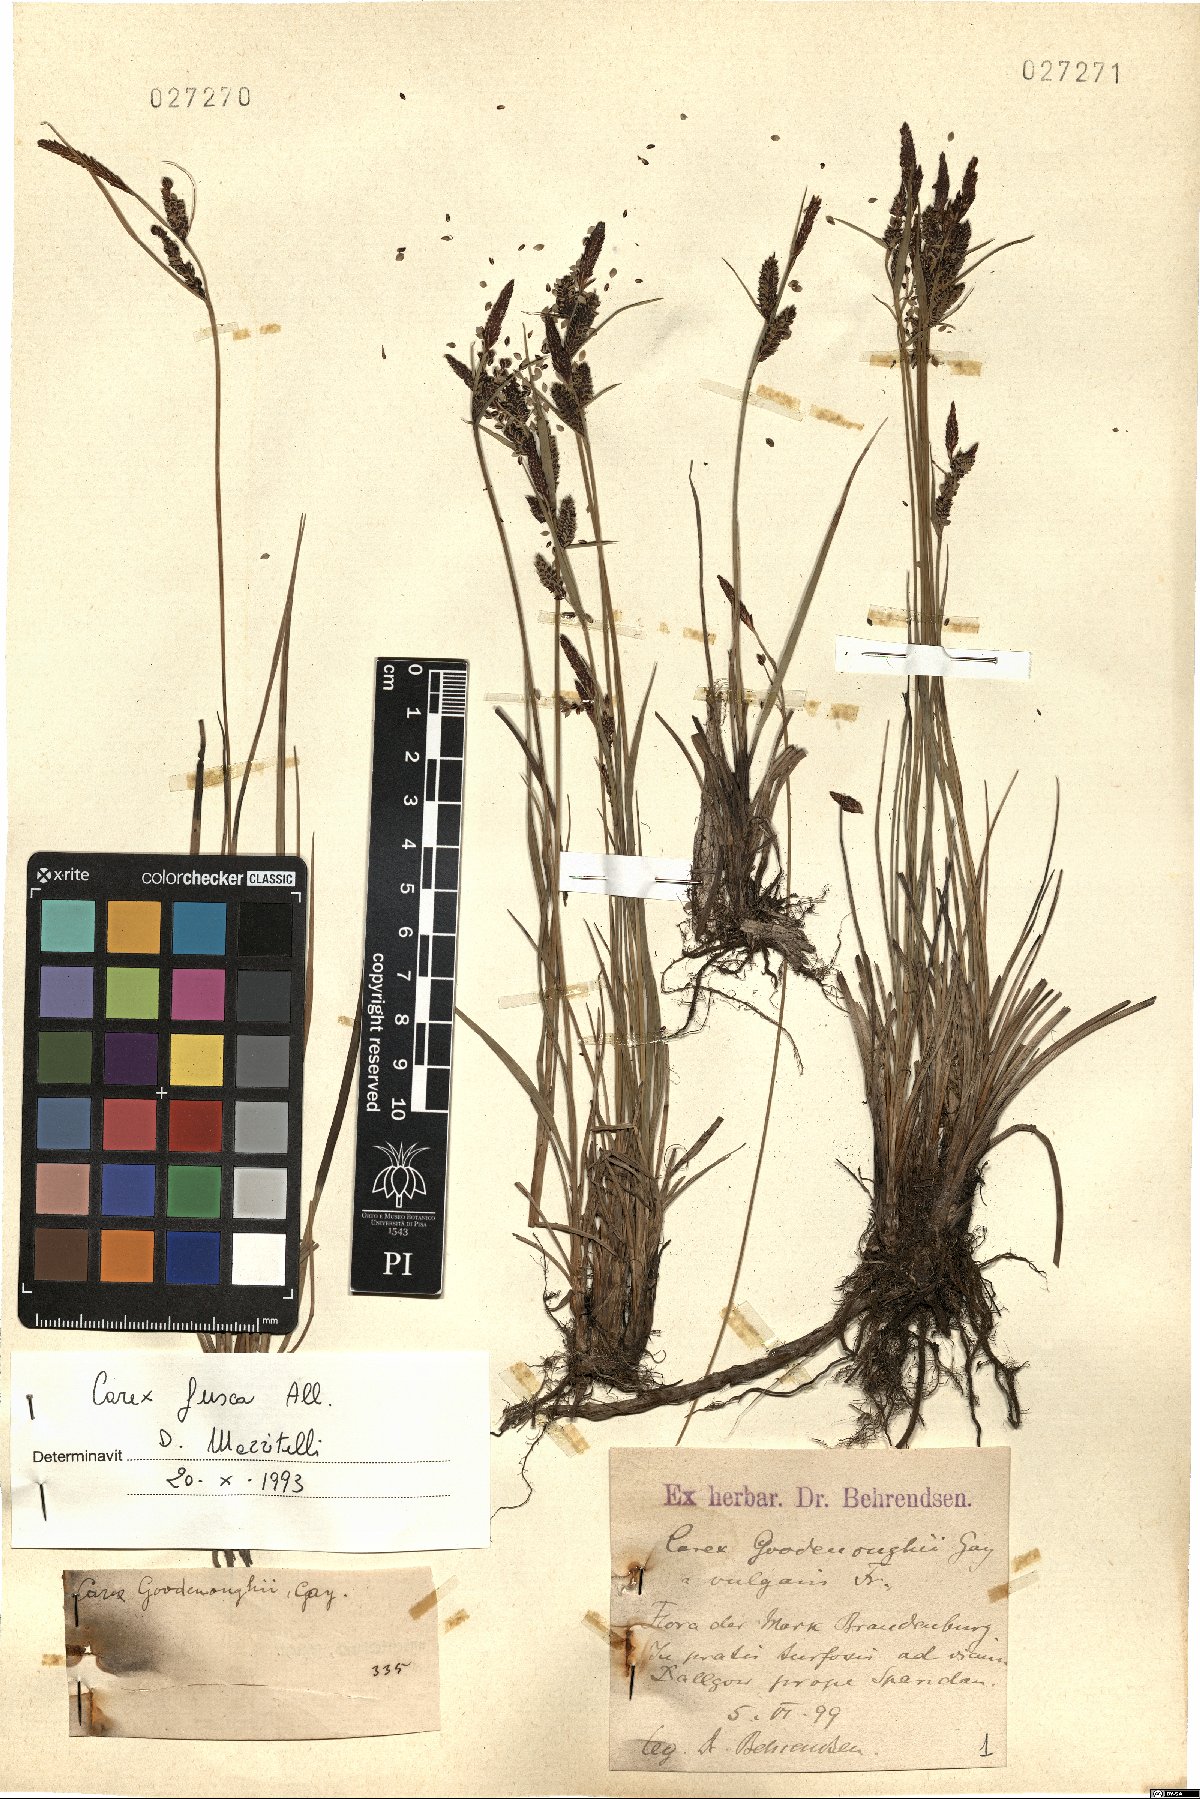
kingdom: Plantae
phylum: Tracheophyta
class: Liliopsida
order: Poales
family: Cyperaceae
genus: Carex
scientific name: Carex nigra
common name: Common sedge
